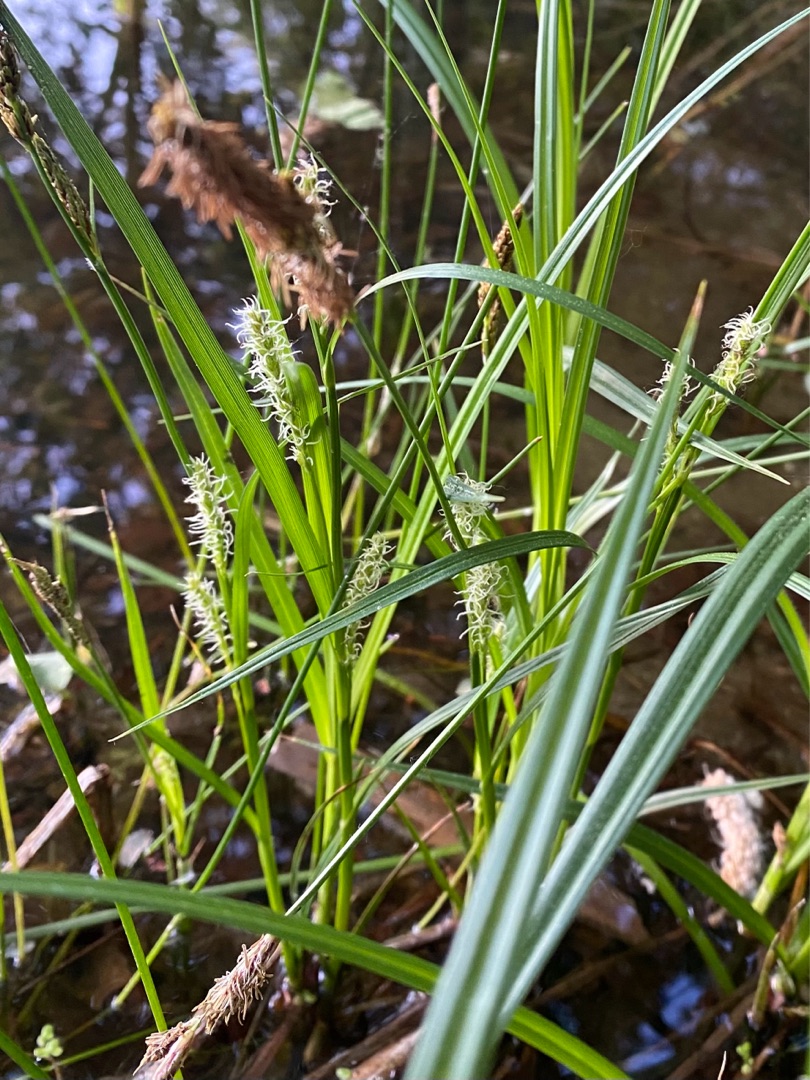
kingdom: Plantae
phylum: Tracheophyta
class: Liliopsida
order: Poales
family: Cyperaceae
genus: Carex
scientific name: Carex hirta
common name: Håret star
